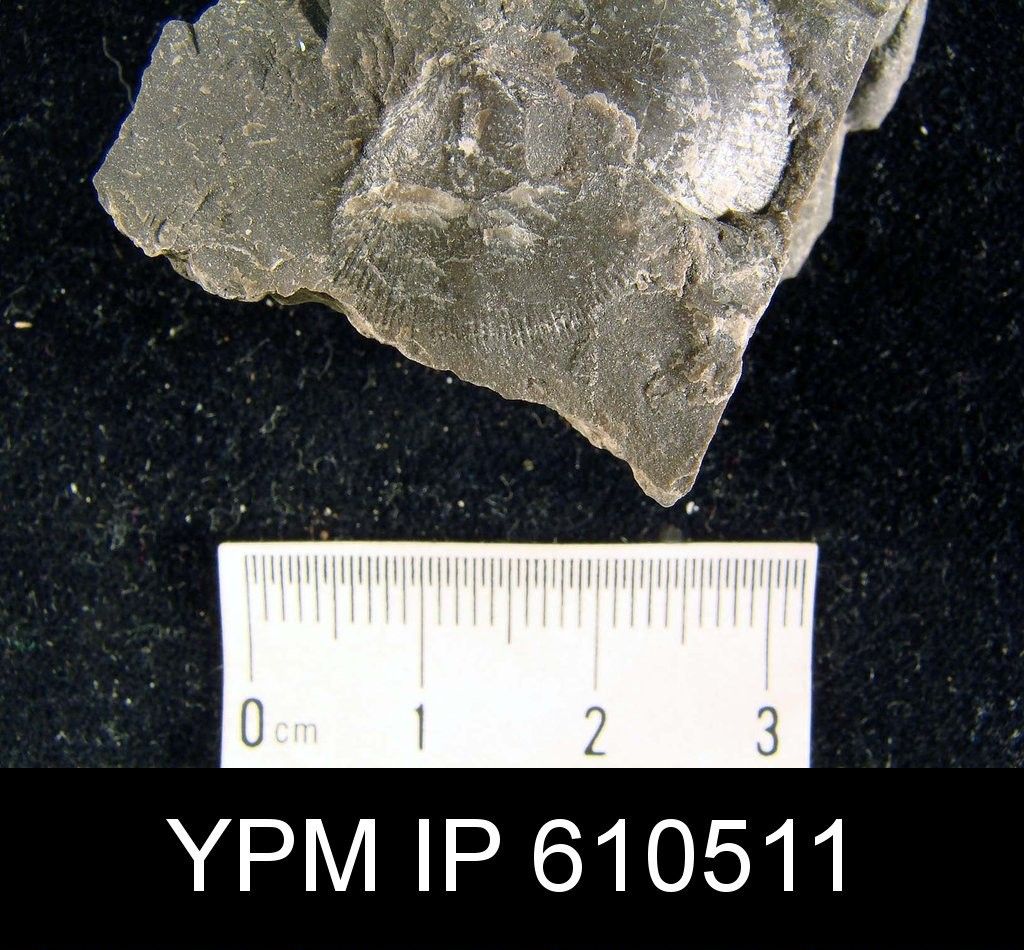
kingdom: Animalia
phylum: Brachiopoda
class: Rhynchonellata
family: Rhipidomellidae
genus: Rhipidomella
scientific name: Rhipidomella Orthis vanuxemi
